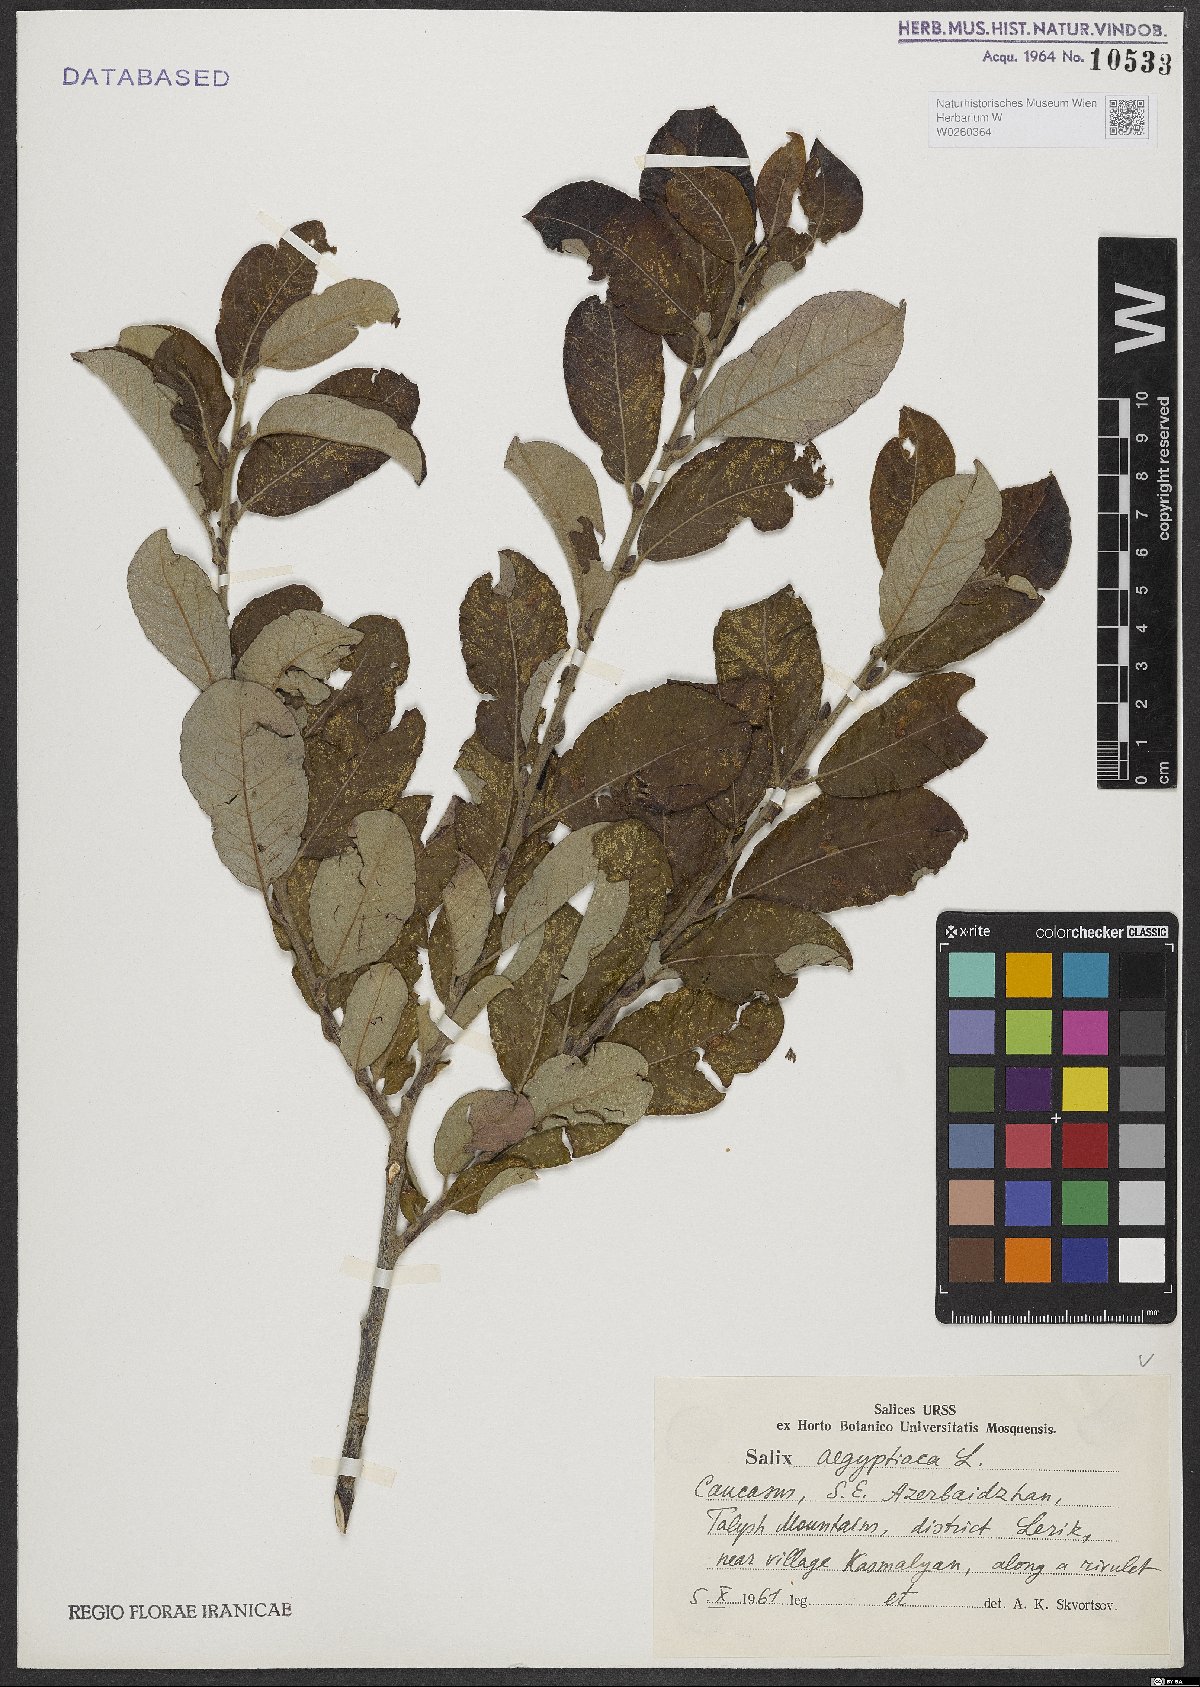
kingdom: Plantae
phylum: Tracheophyta
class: Magnoliopsida
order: Malpighiales
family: Salicaceae
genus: Salix
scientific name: Salix aegyptiaca
